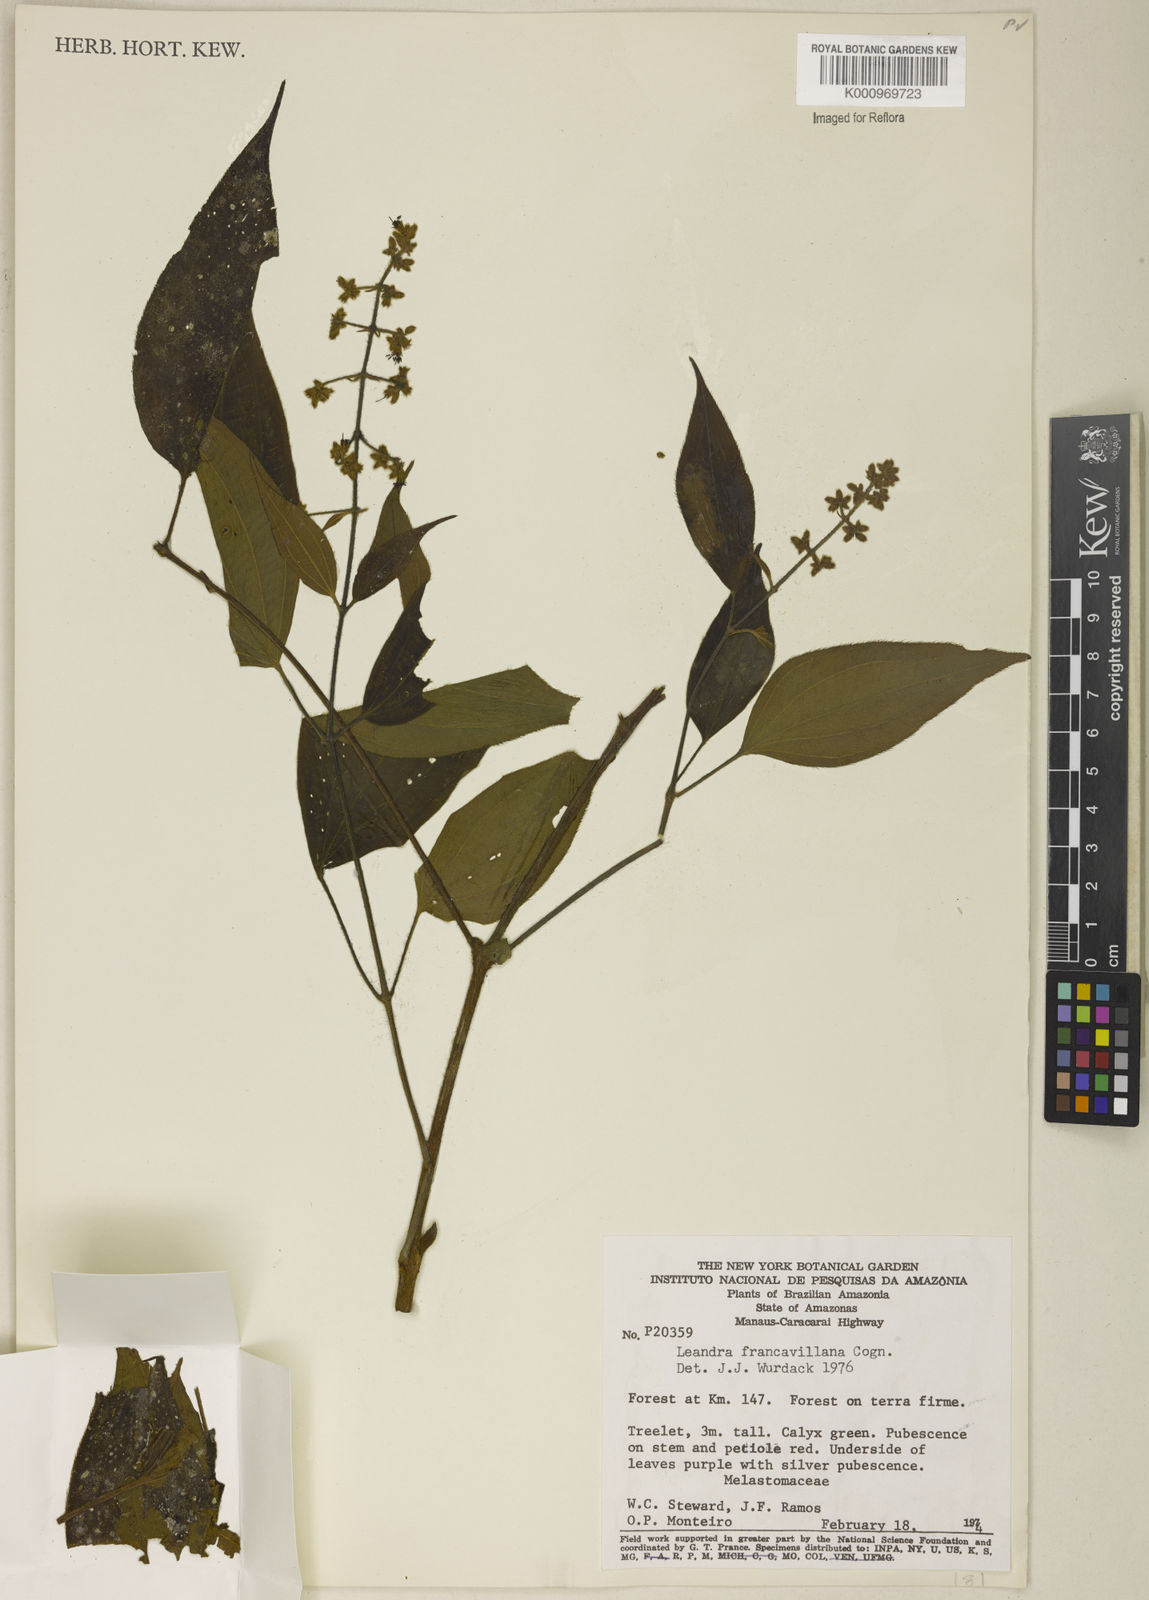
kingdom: Plantae
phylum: Tracheophyta
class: Magnoliopsida
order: Myrtales
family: Melastomataceae
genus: Miconia
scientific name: Miconia secunfrancavillana
